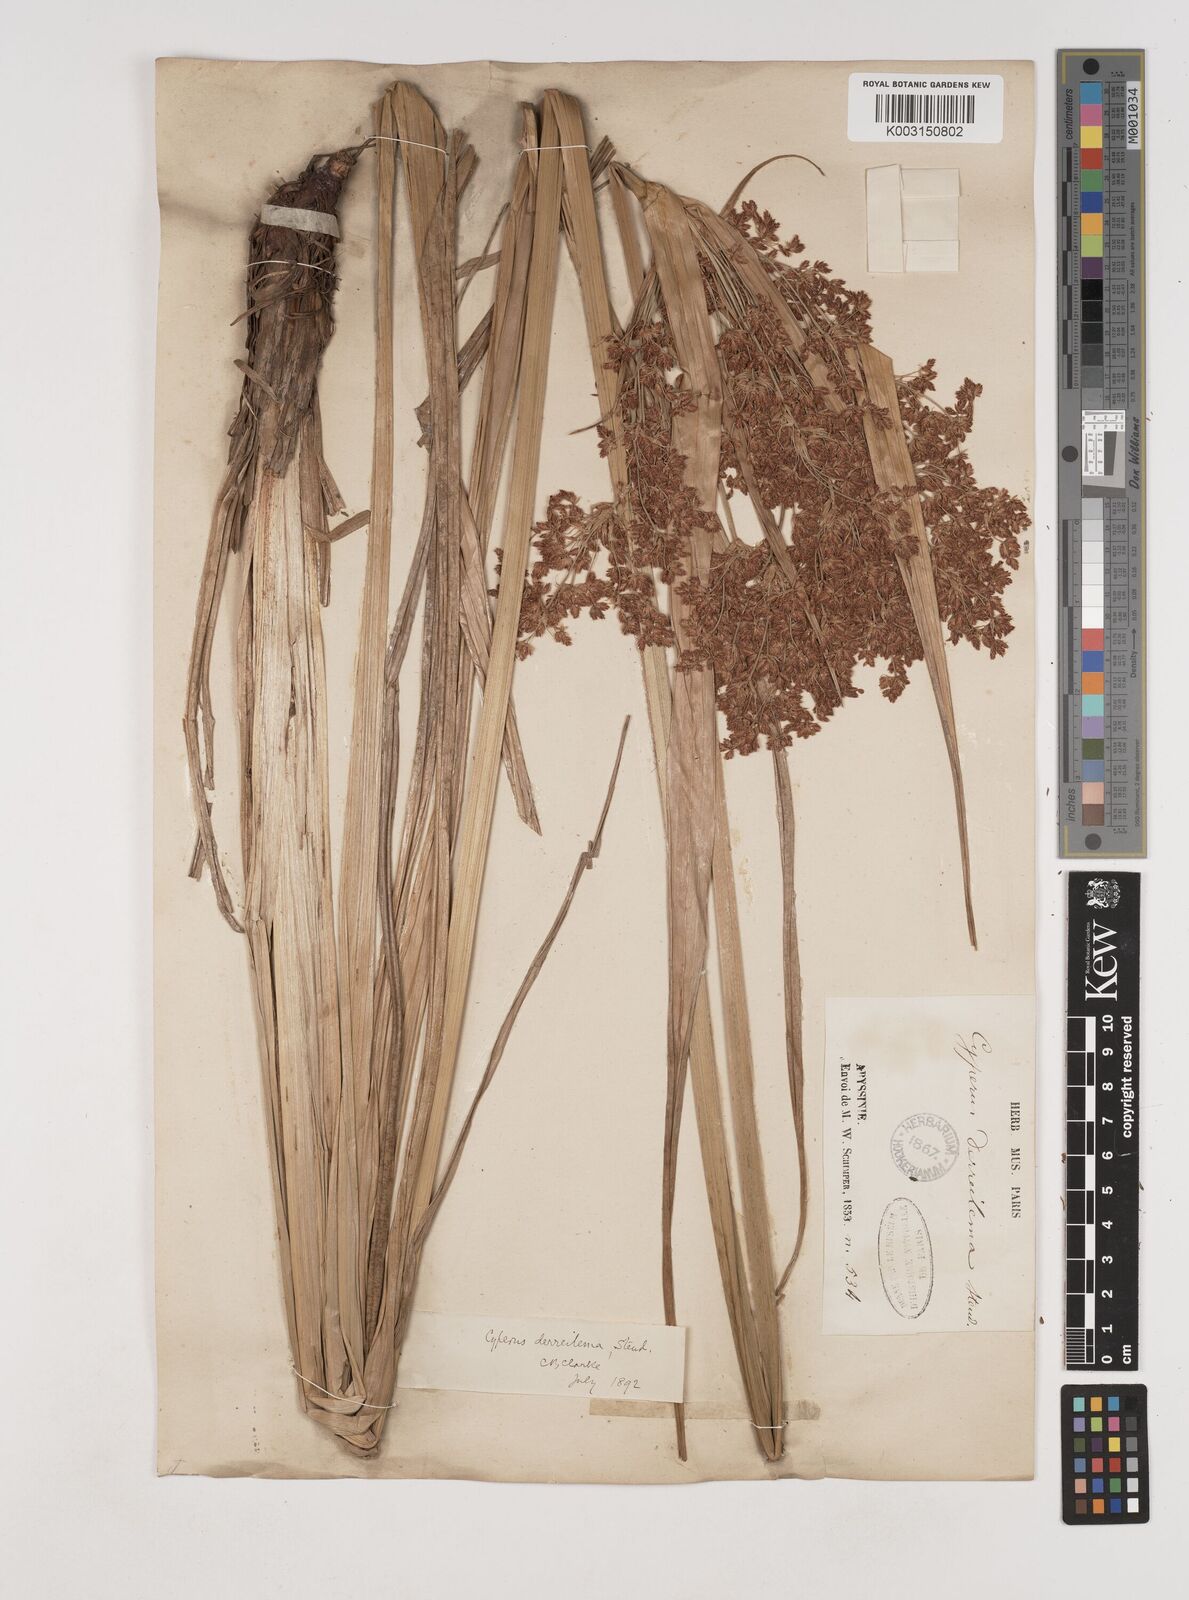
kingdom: Plantae
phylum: Tracheophyta
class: Liliopsida
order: Poales
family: Cyperaceae
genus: Cyperus
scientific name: Cyperus derreilema
